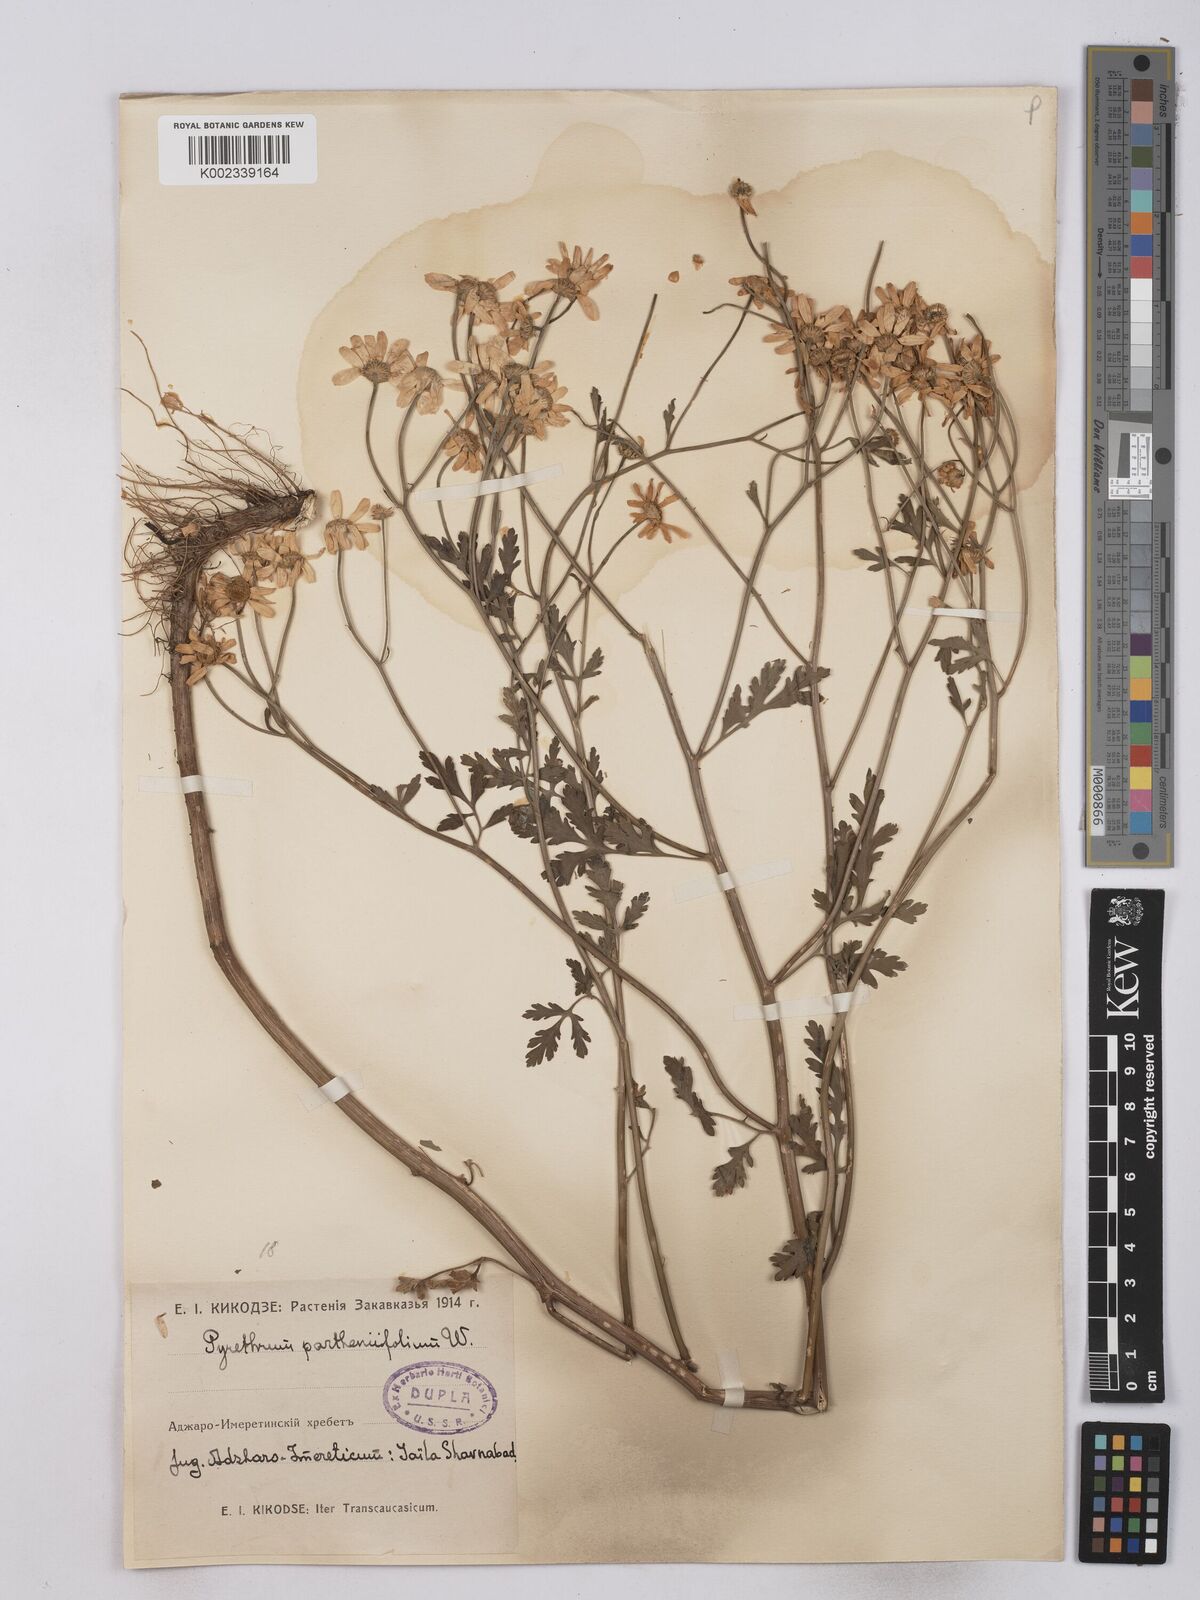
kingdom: Plantae
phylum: Tracheophyta
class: Magnoliopsida
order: Asterales
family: Asteraceae
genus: Tanacetum
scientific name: Tanacetum partheniifolium
